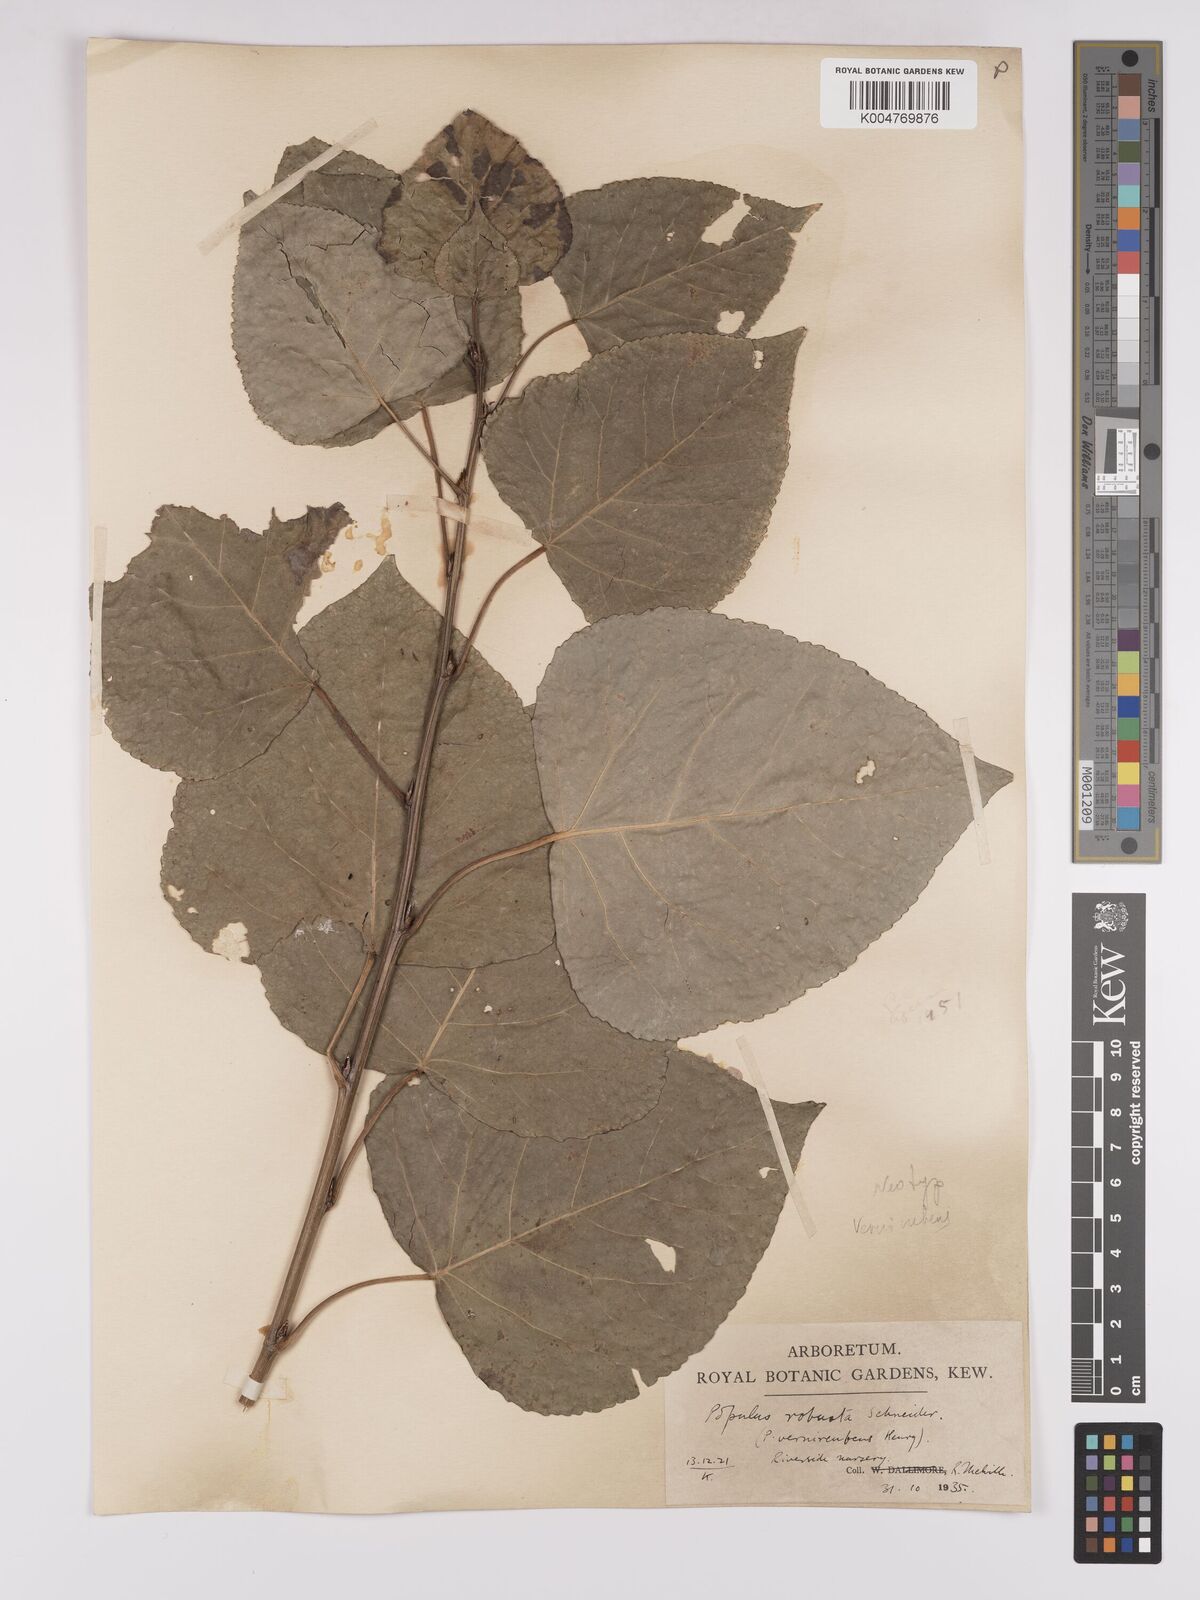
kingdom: Plantae
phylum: Tracheophyta
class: Magnoliopsida
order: Malpighiales
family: Salicaceae
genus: Populus
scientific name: Populus canadensis
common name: Carolina poplar
